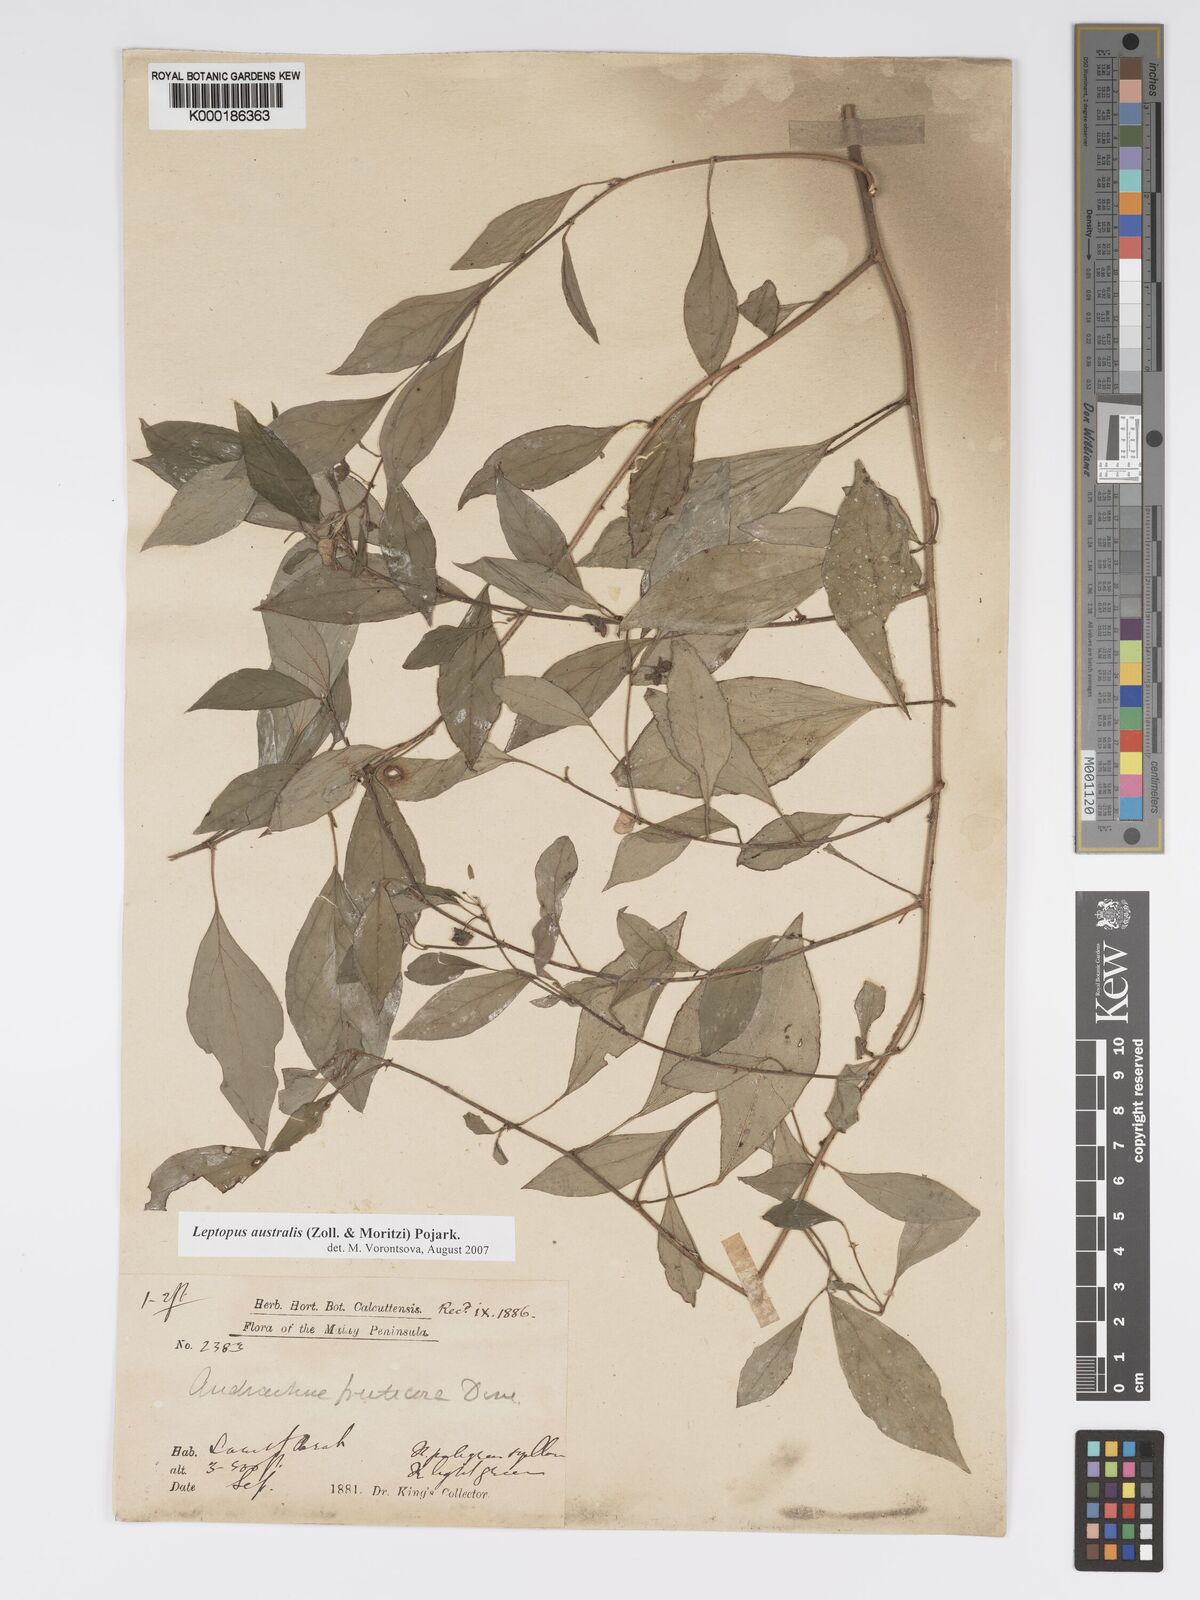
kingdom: Plantae
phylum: Tracheophyta
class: Magnoliopsida
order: Malpighiales
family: Phyllanthaceae
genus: Leptopus
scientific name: Leptopus australis
